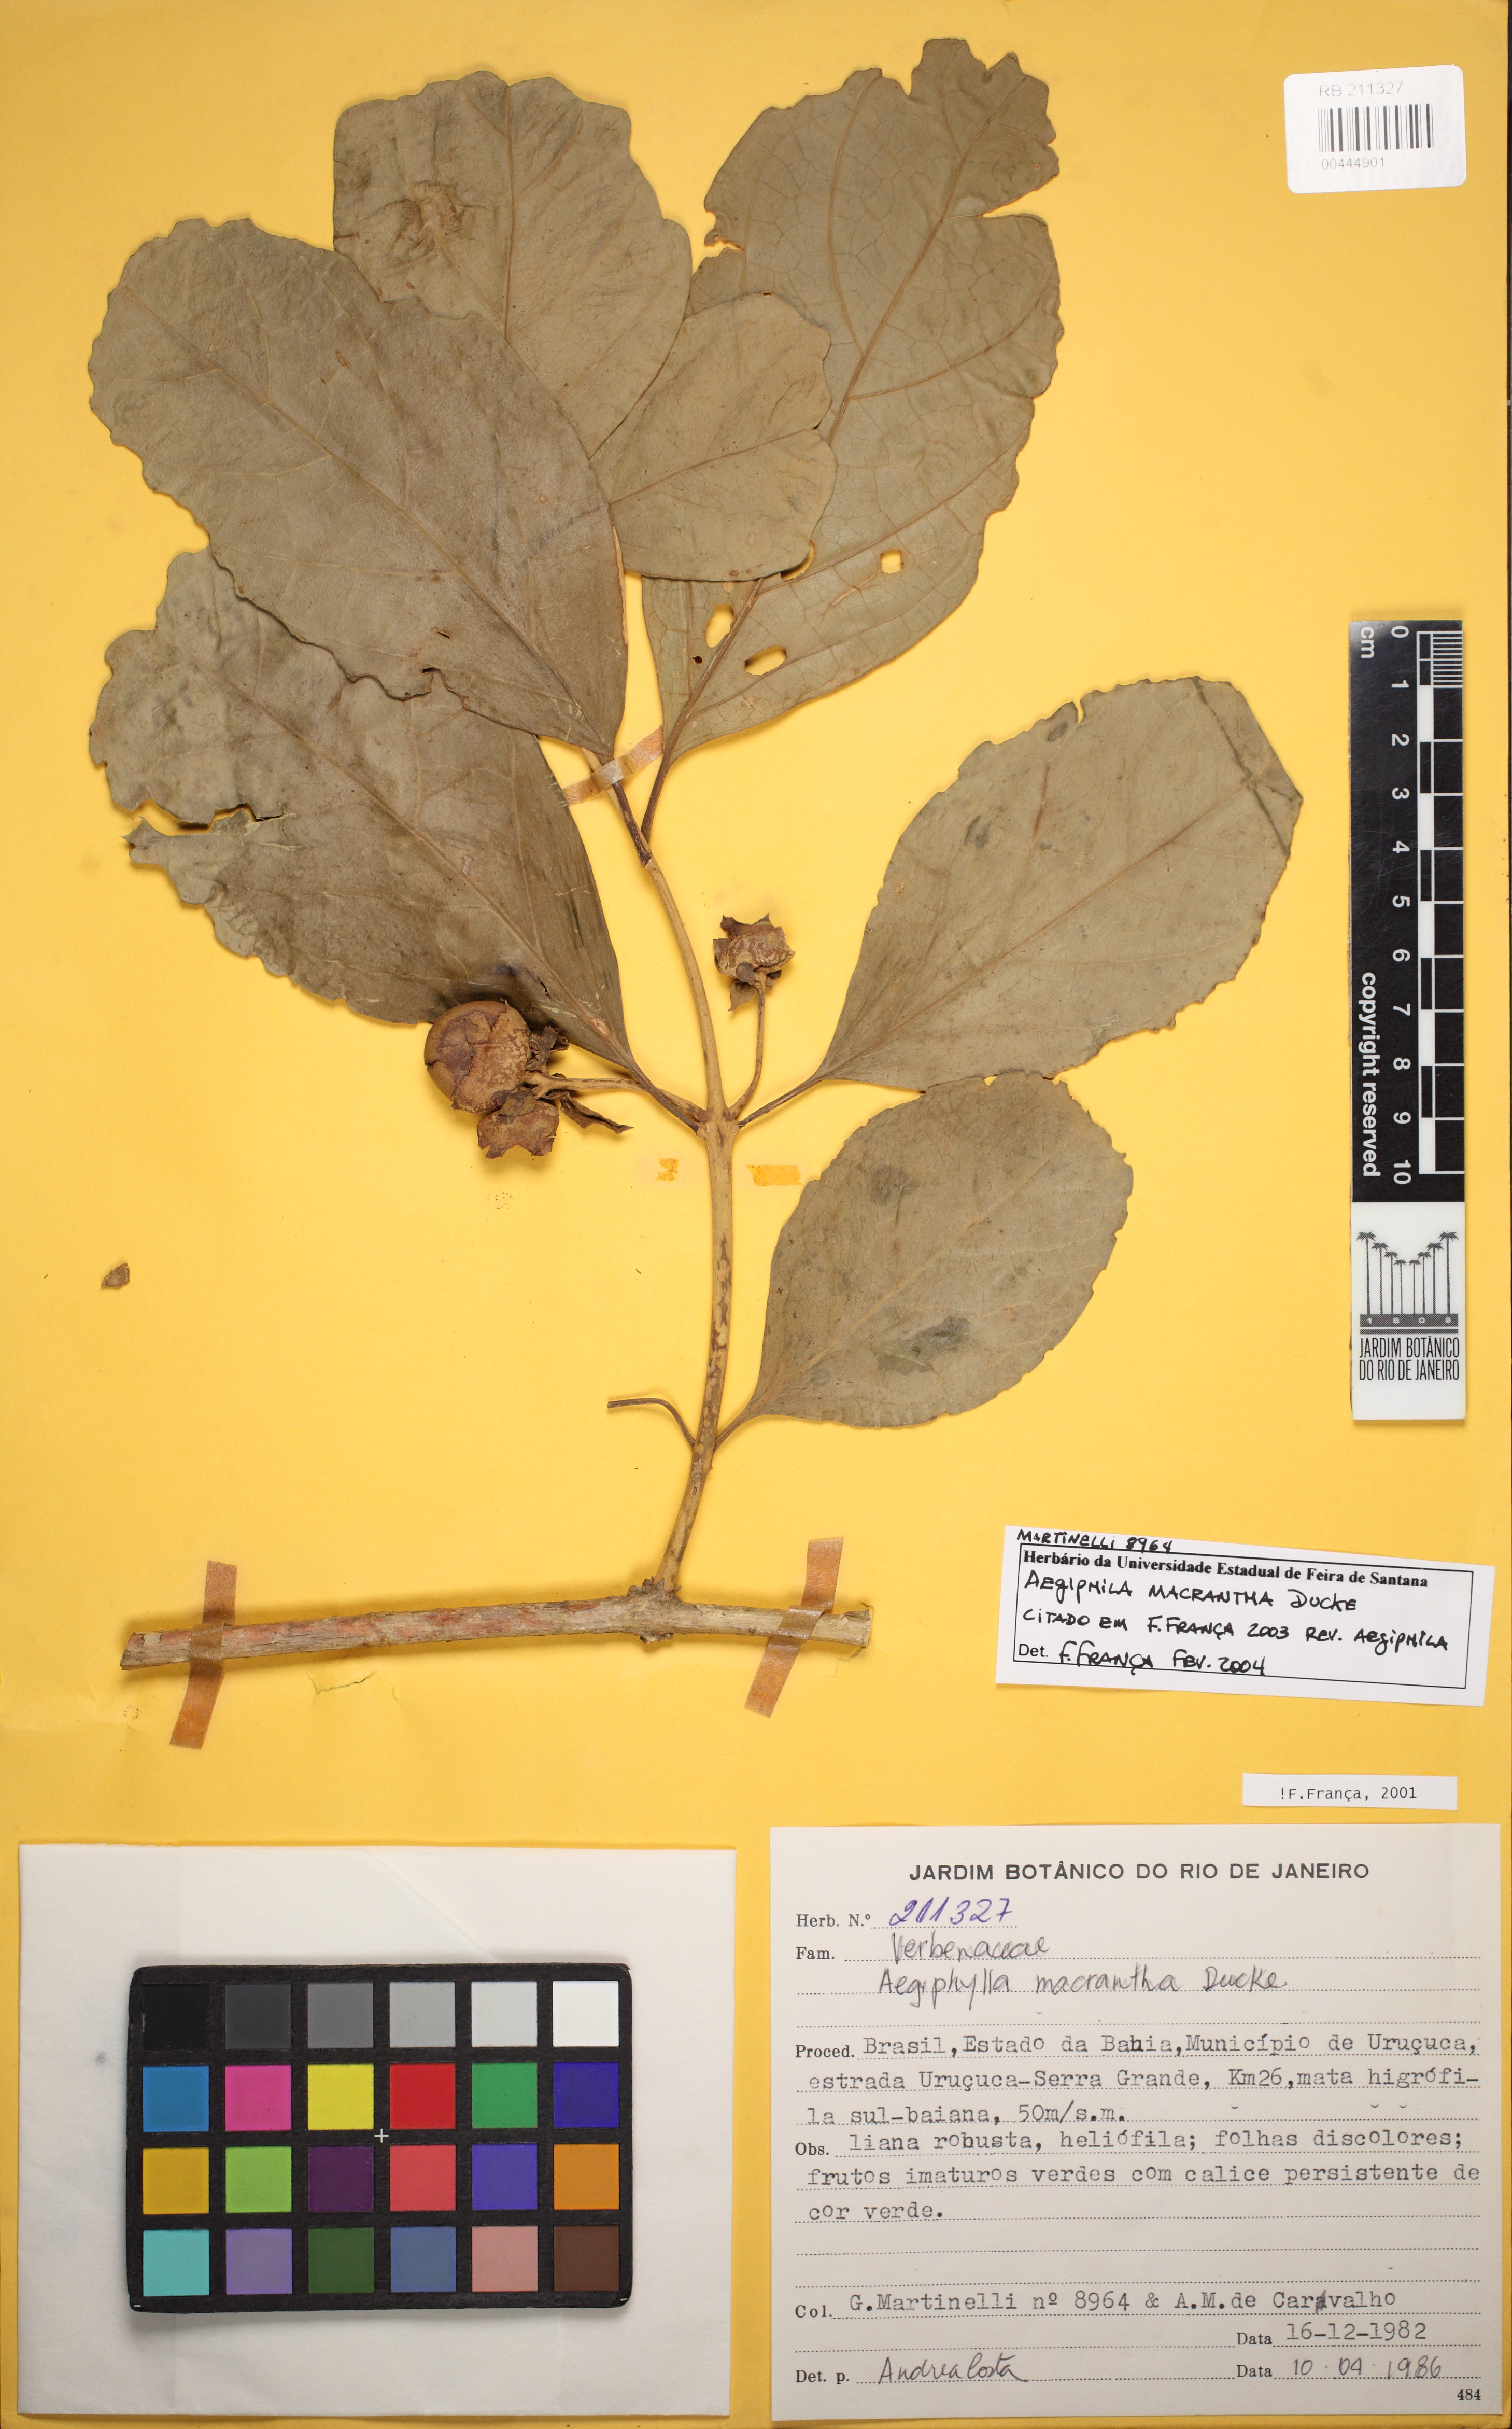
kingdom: Plantae
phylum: Tracheophyta
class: Magnoliopsida
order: Lamiales
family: Lamiaceae
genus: Aegiphila
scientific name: Aegiphila macrantha
